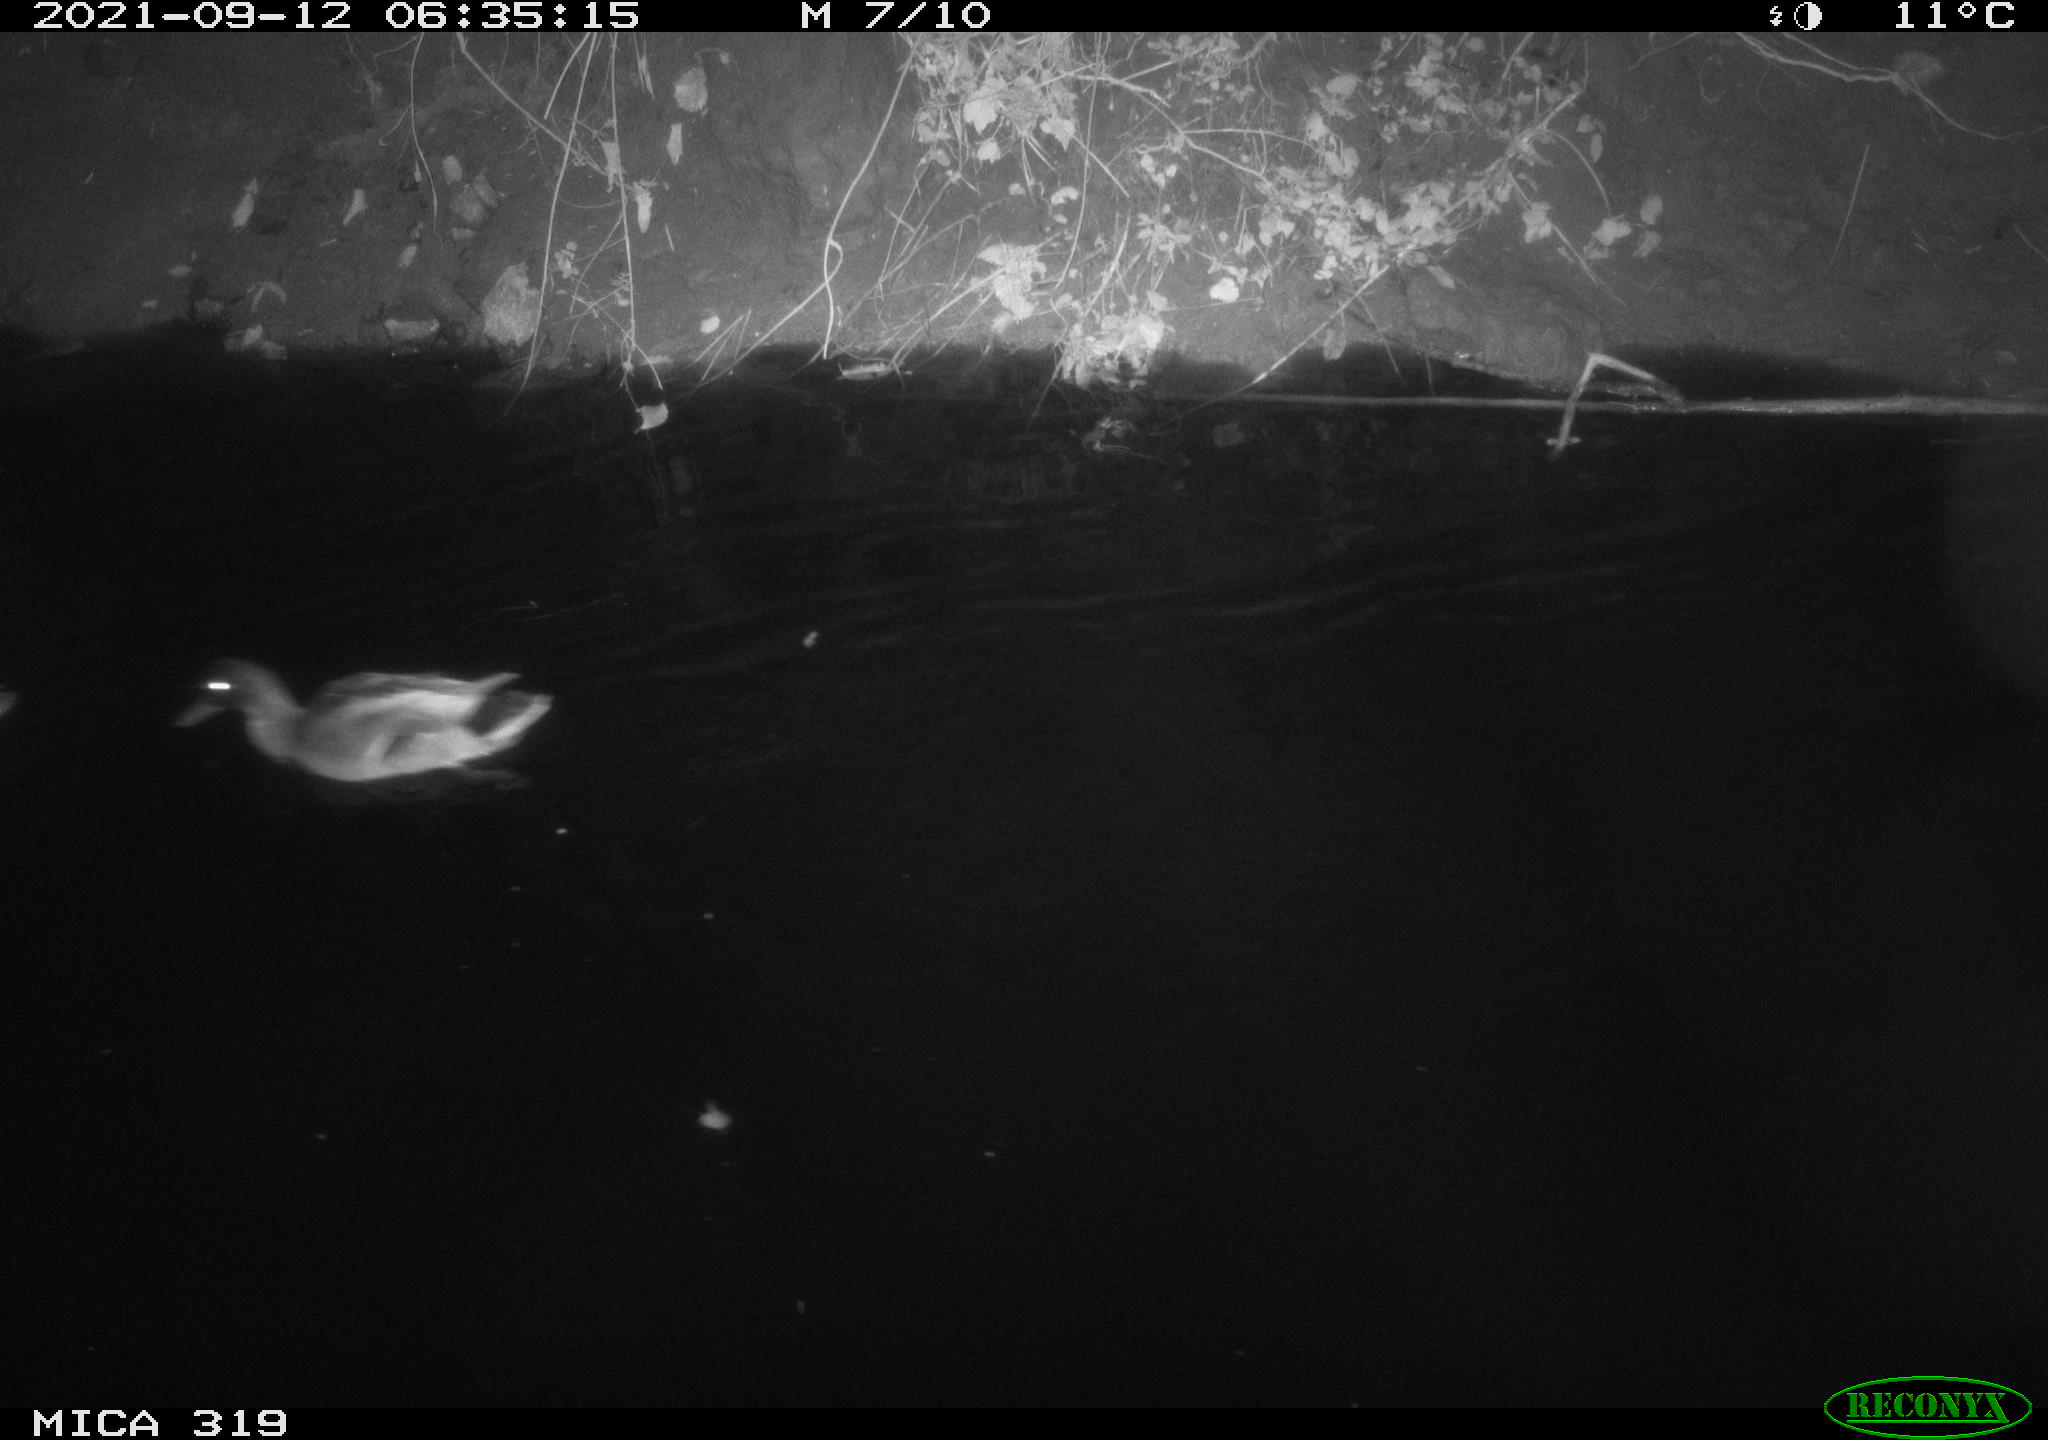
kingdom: Animalia
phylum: Chordata
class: Aves
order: Anseriformes
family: Anatidae
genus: Anas
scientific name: Anas platyrhynchos
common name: Mallard
